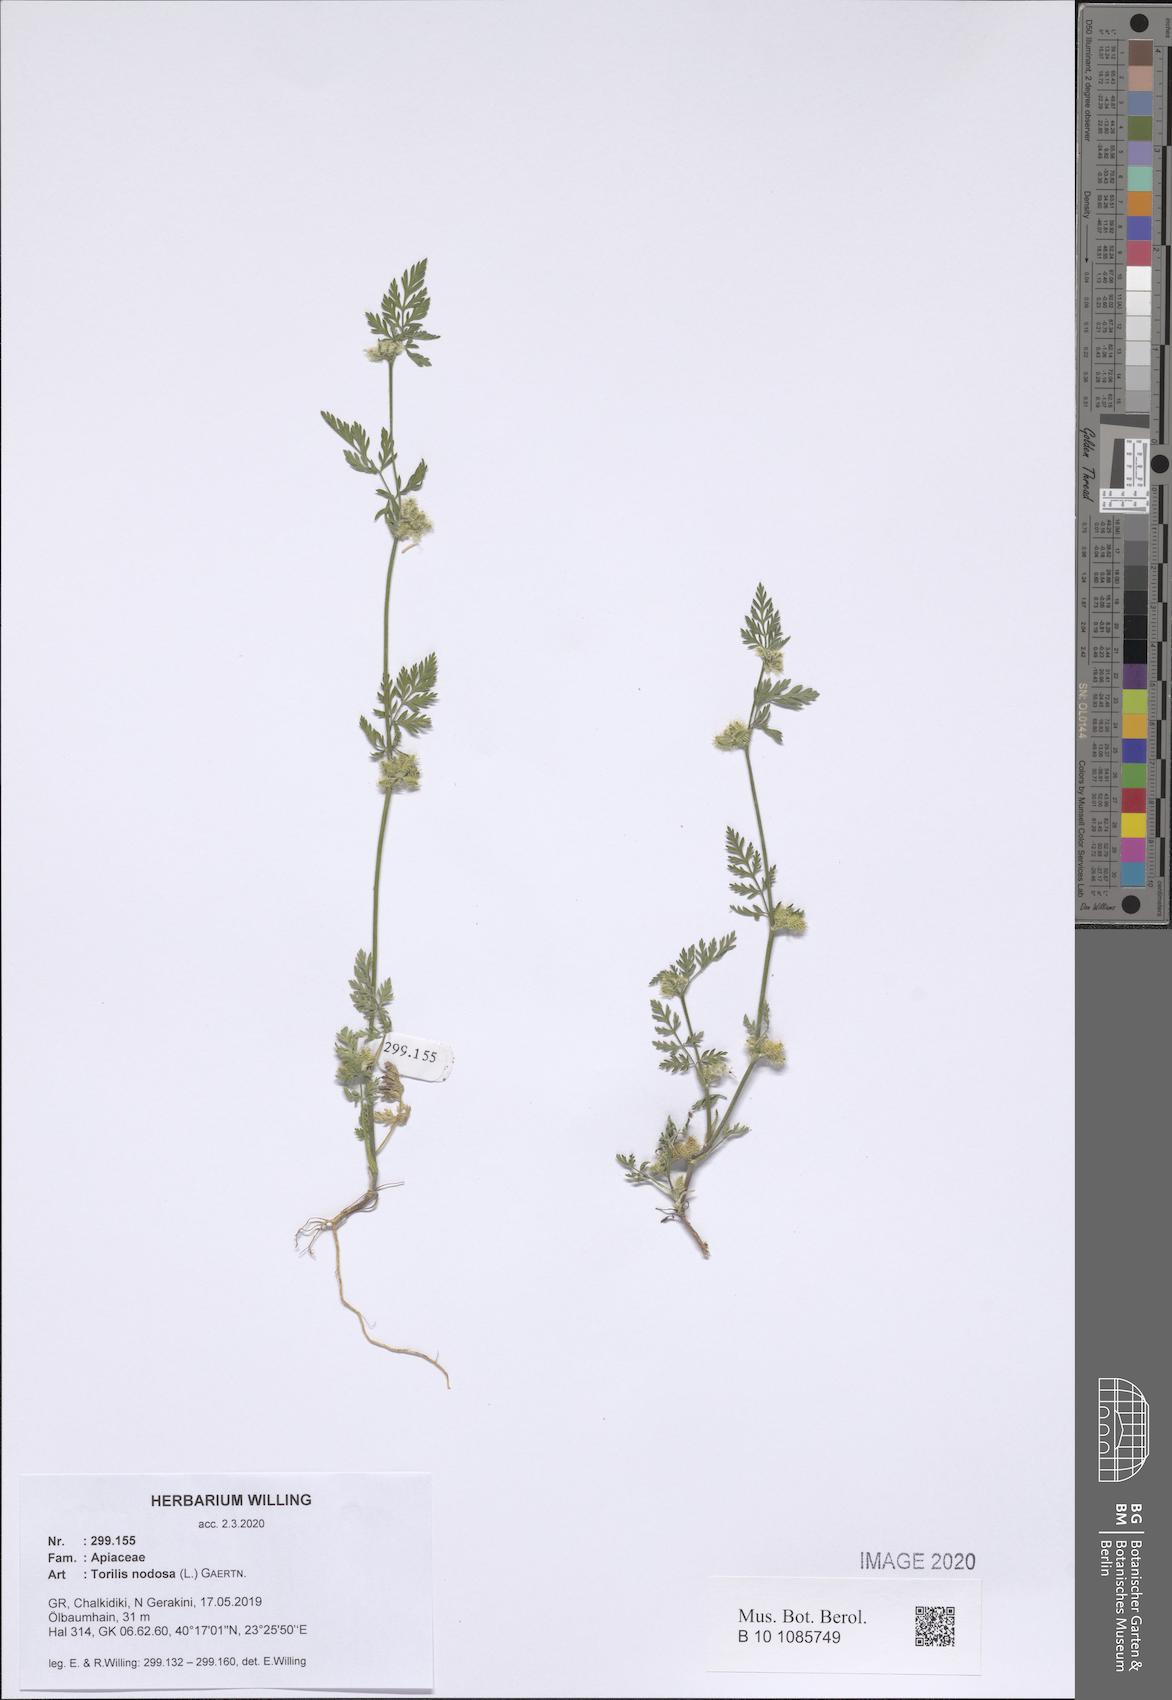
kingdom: Plantae
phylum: Tracheophyta
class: Magnoliopsida
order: Apiales
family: Apiaceae
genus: Torilis
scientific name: Torilis nodosa
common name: Knotted hedge-parsley
